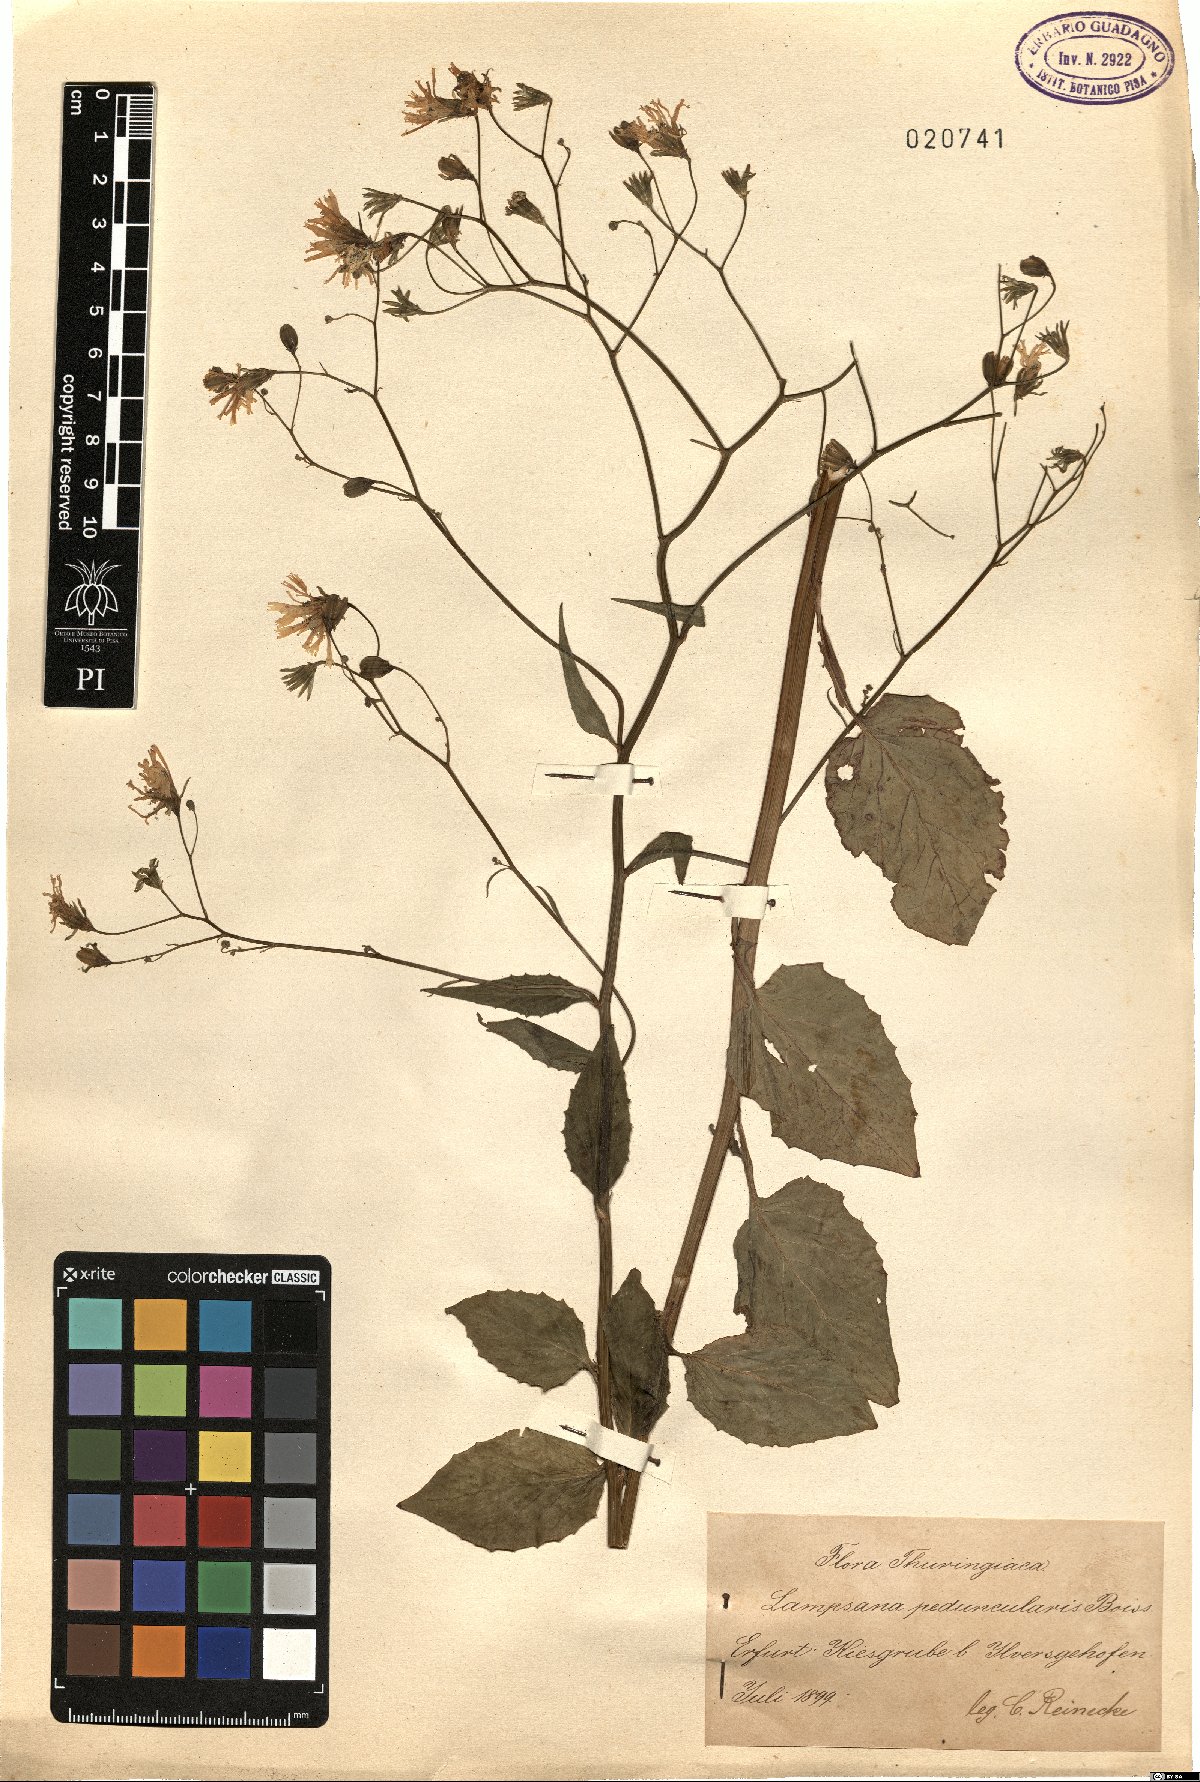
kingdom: Plantae
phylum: Tracheophyta
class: Magnoliopsida
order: Asterales
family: Asteraceae
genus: Lapsana
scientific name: Lapsana communis
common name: Nipplewort
